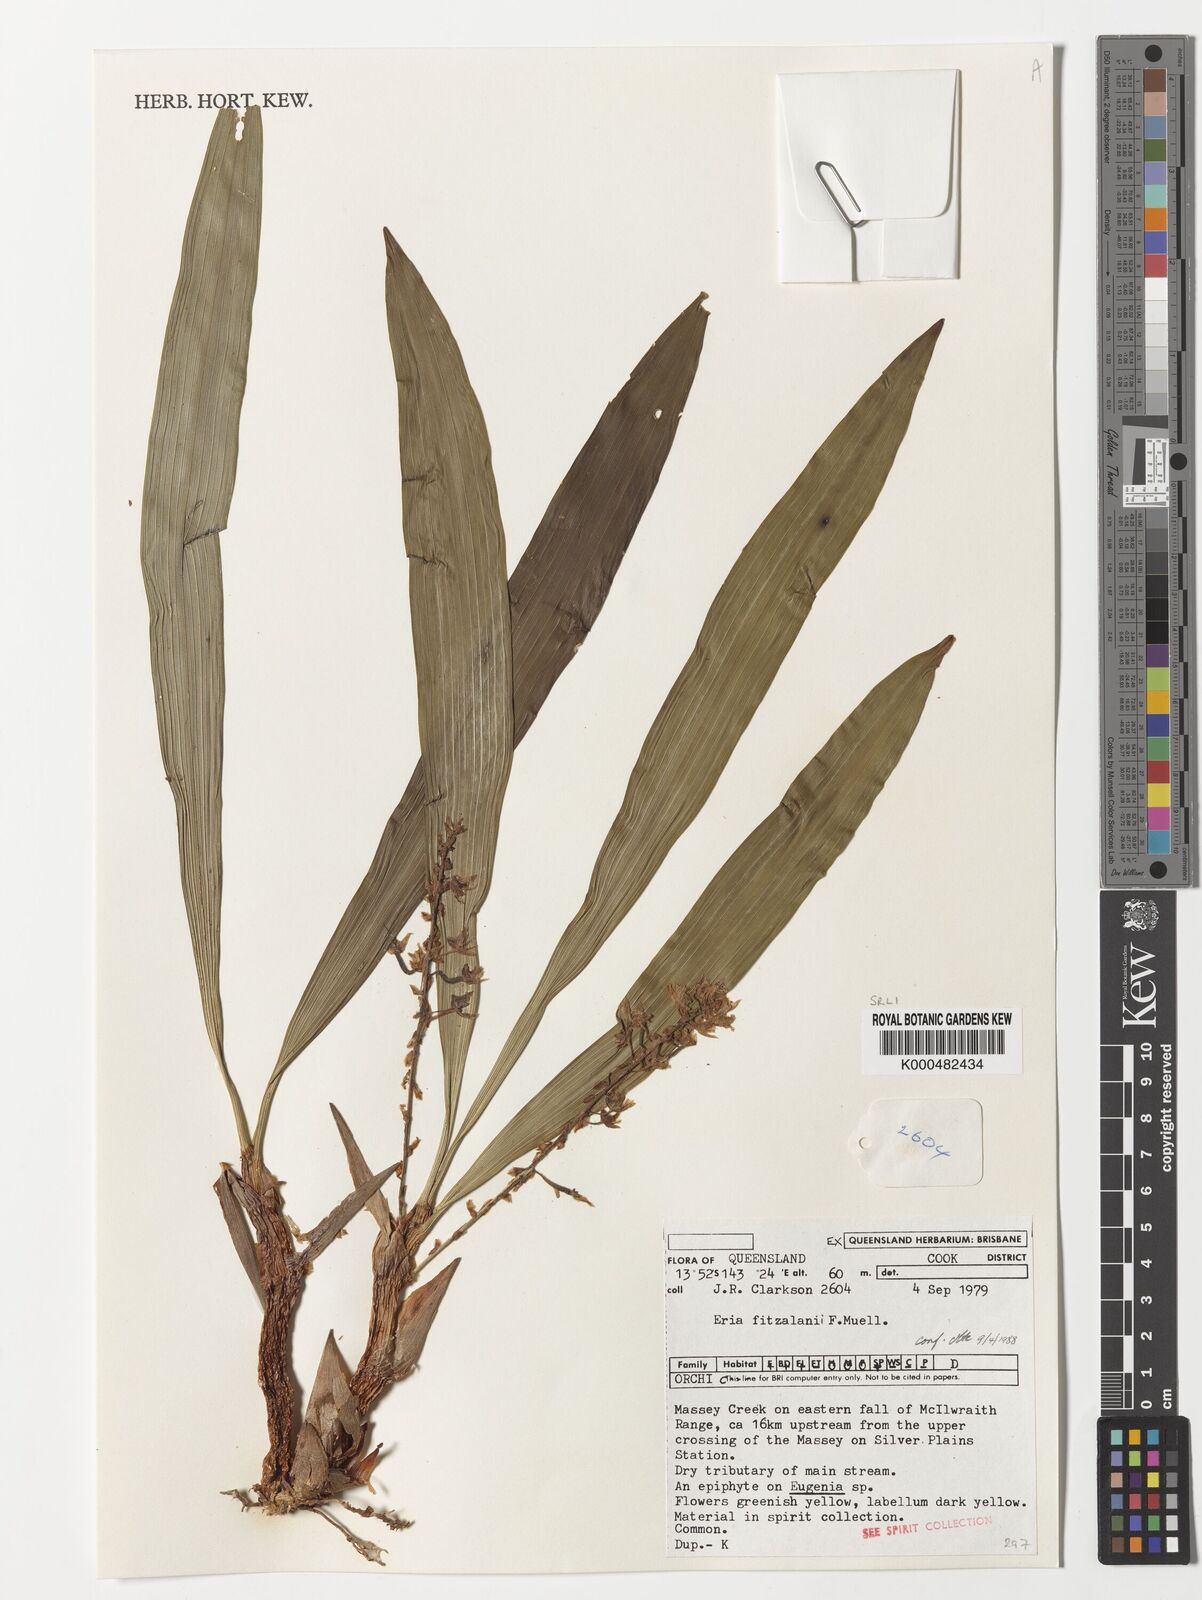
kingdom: Plantae
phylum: Tracheophyta
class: Liliopsida
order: Asparagales
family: Orchidaceae
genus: Pinalia
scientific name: Pinalia fitzalanii
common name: Common fuzz orchid
